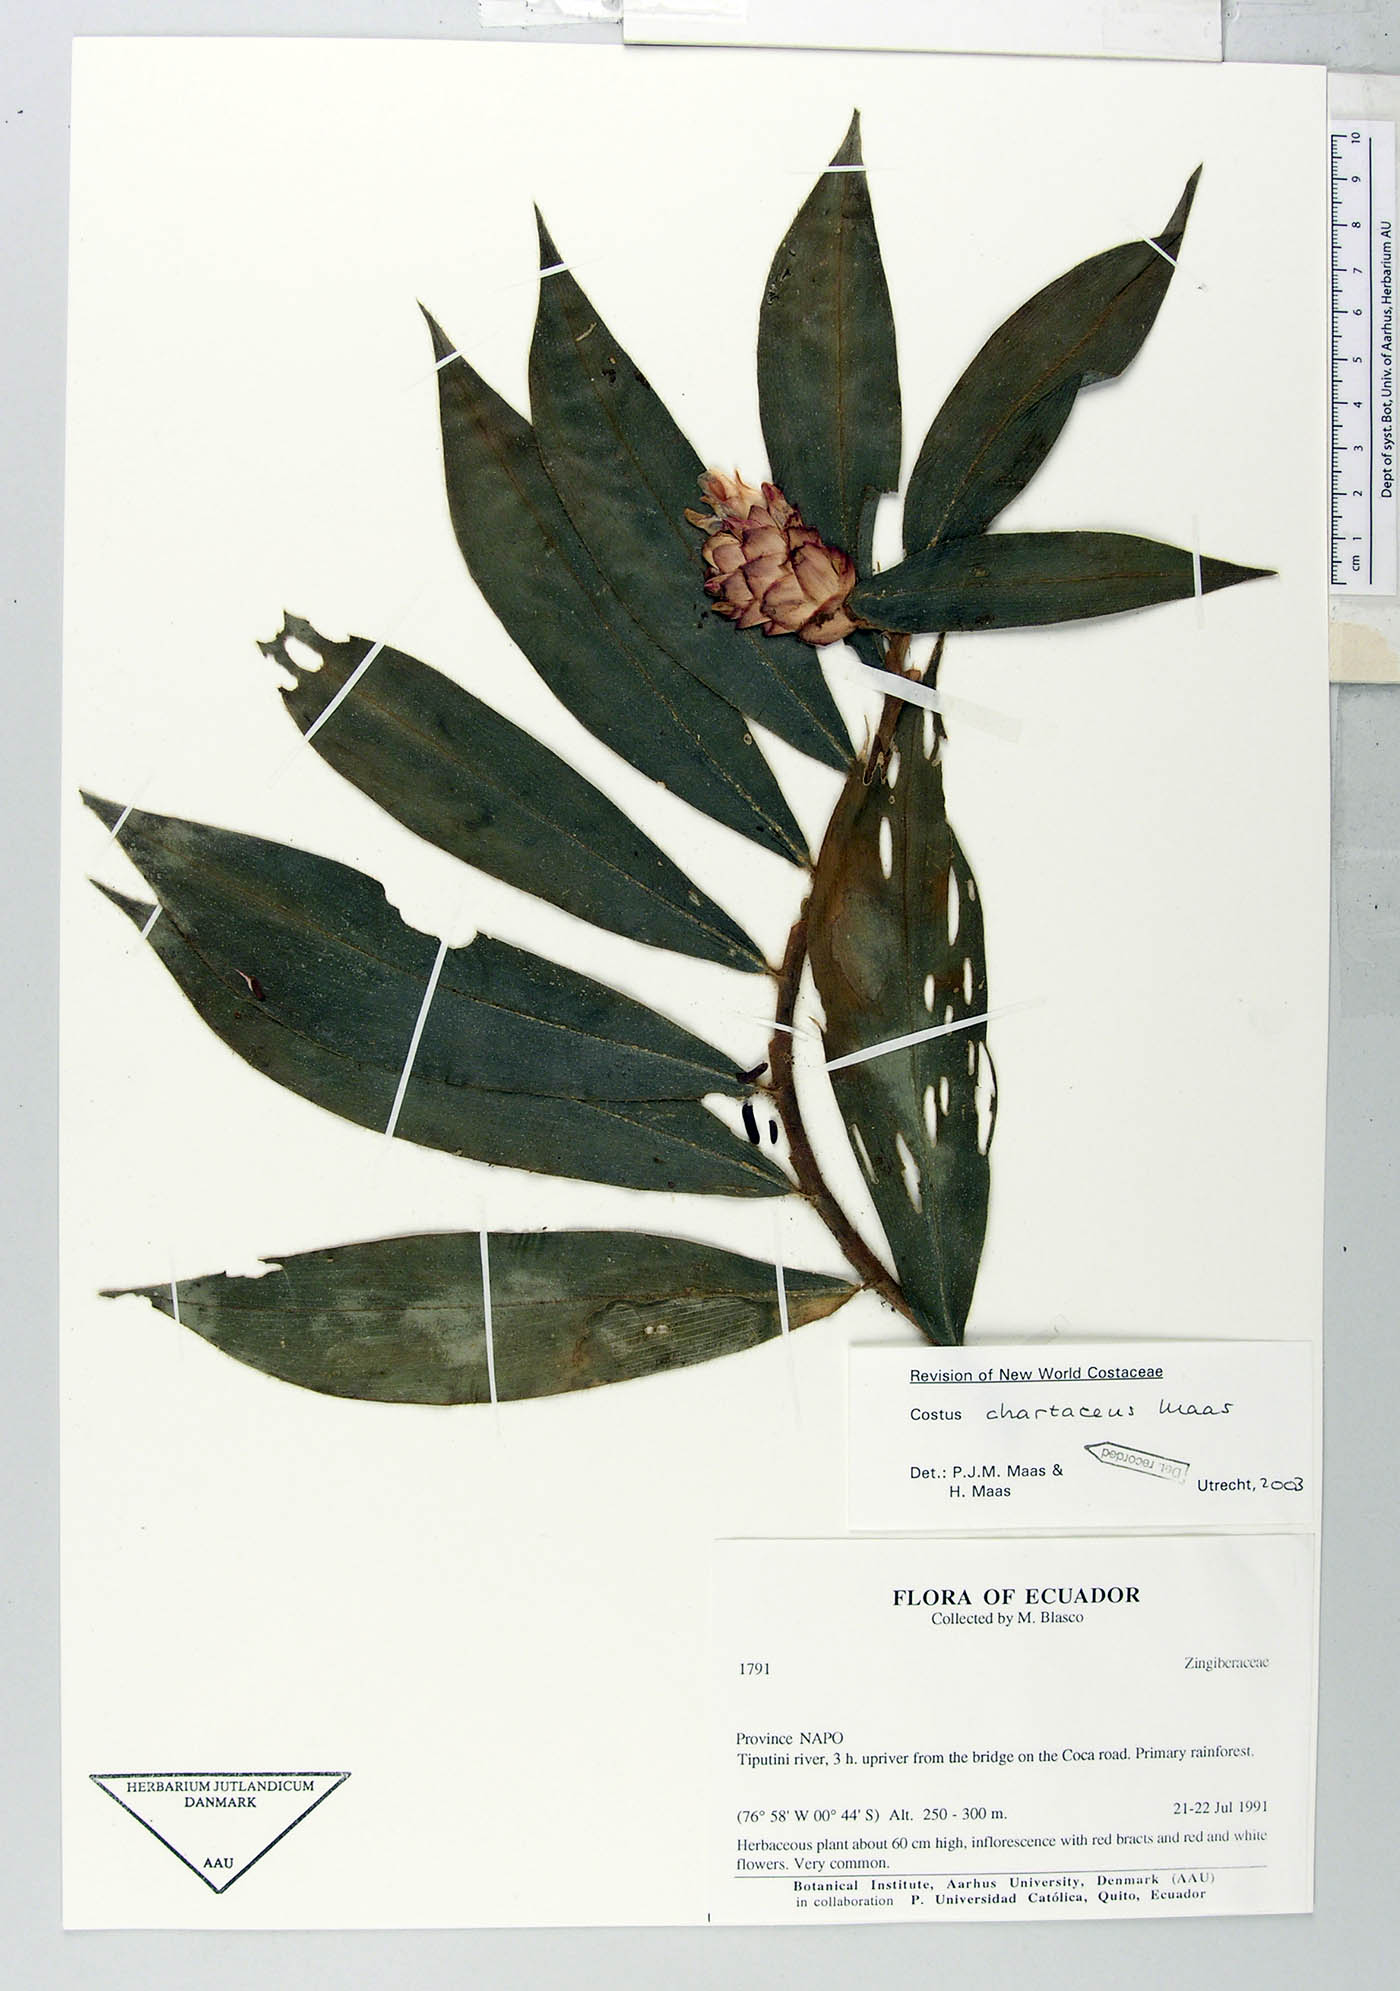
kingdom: Plantae
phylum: Tracheophyta
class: Liliopsida
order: Zingiberales
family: Costaceae
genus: Costus
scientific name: Costus chartaceus
